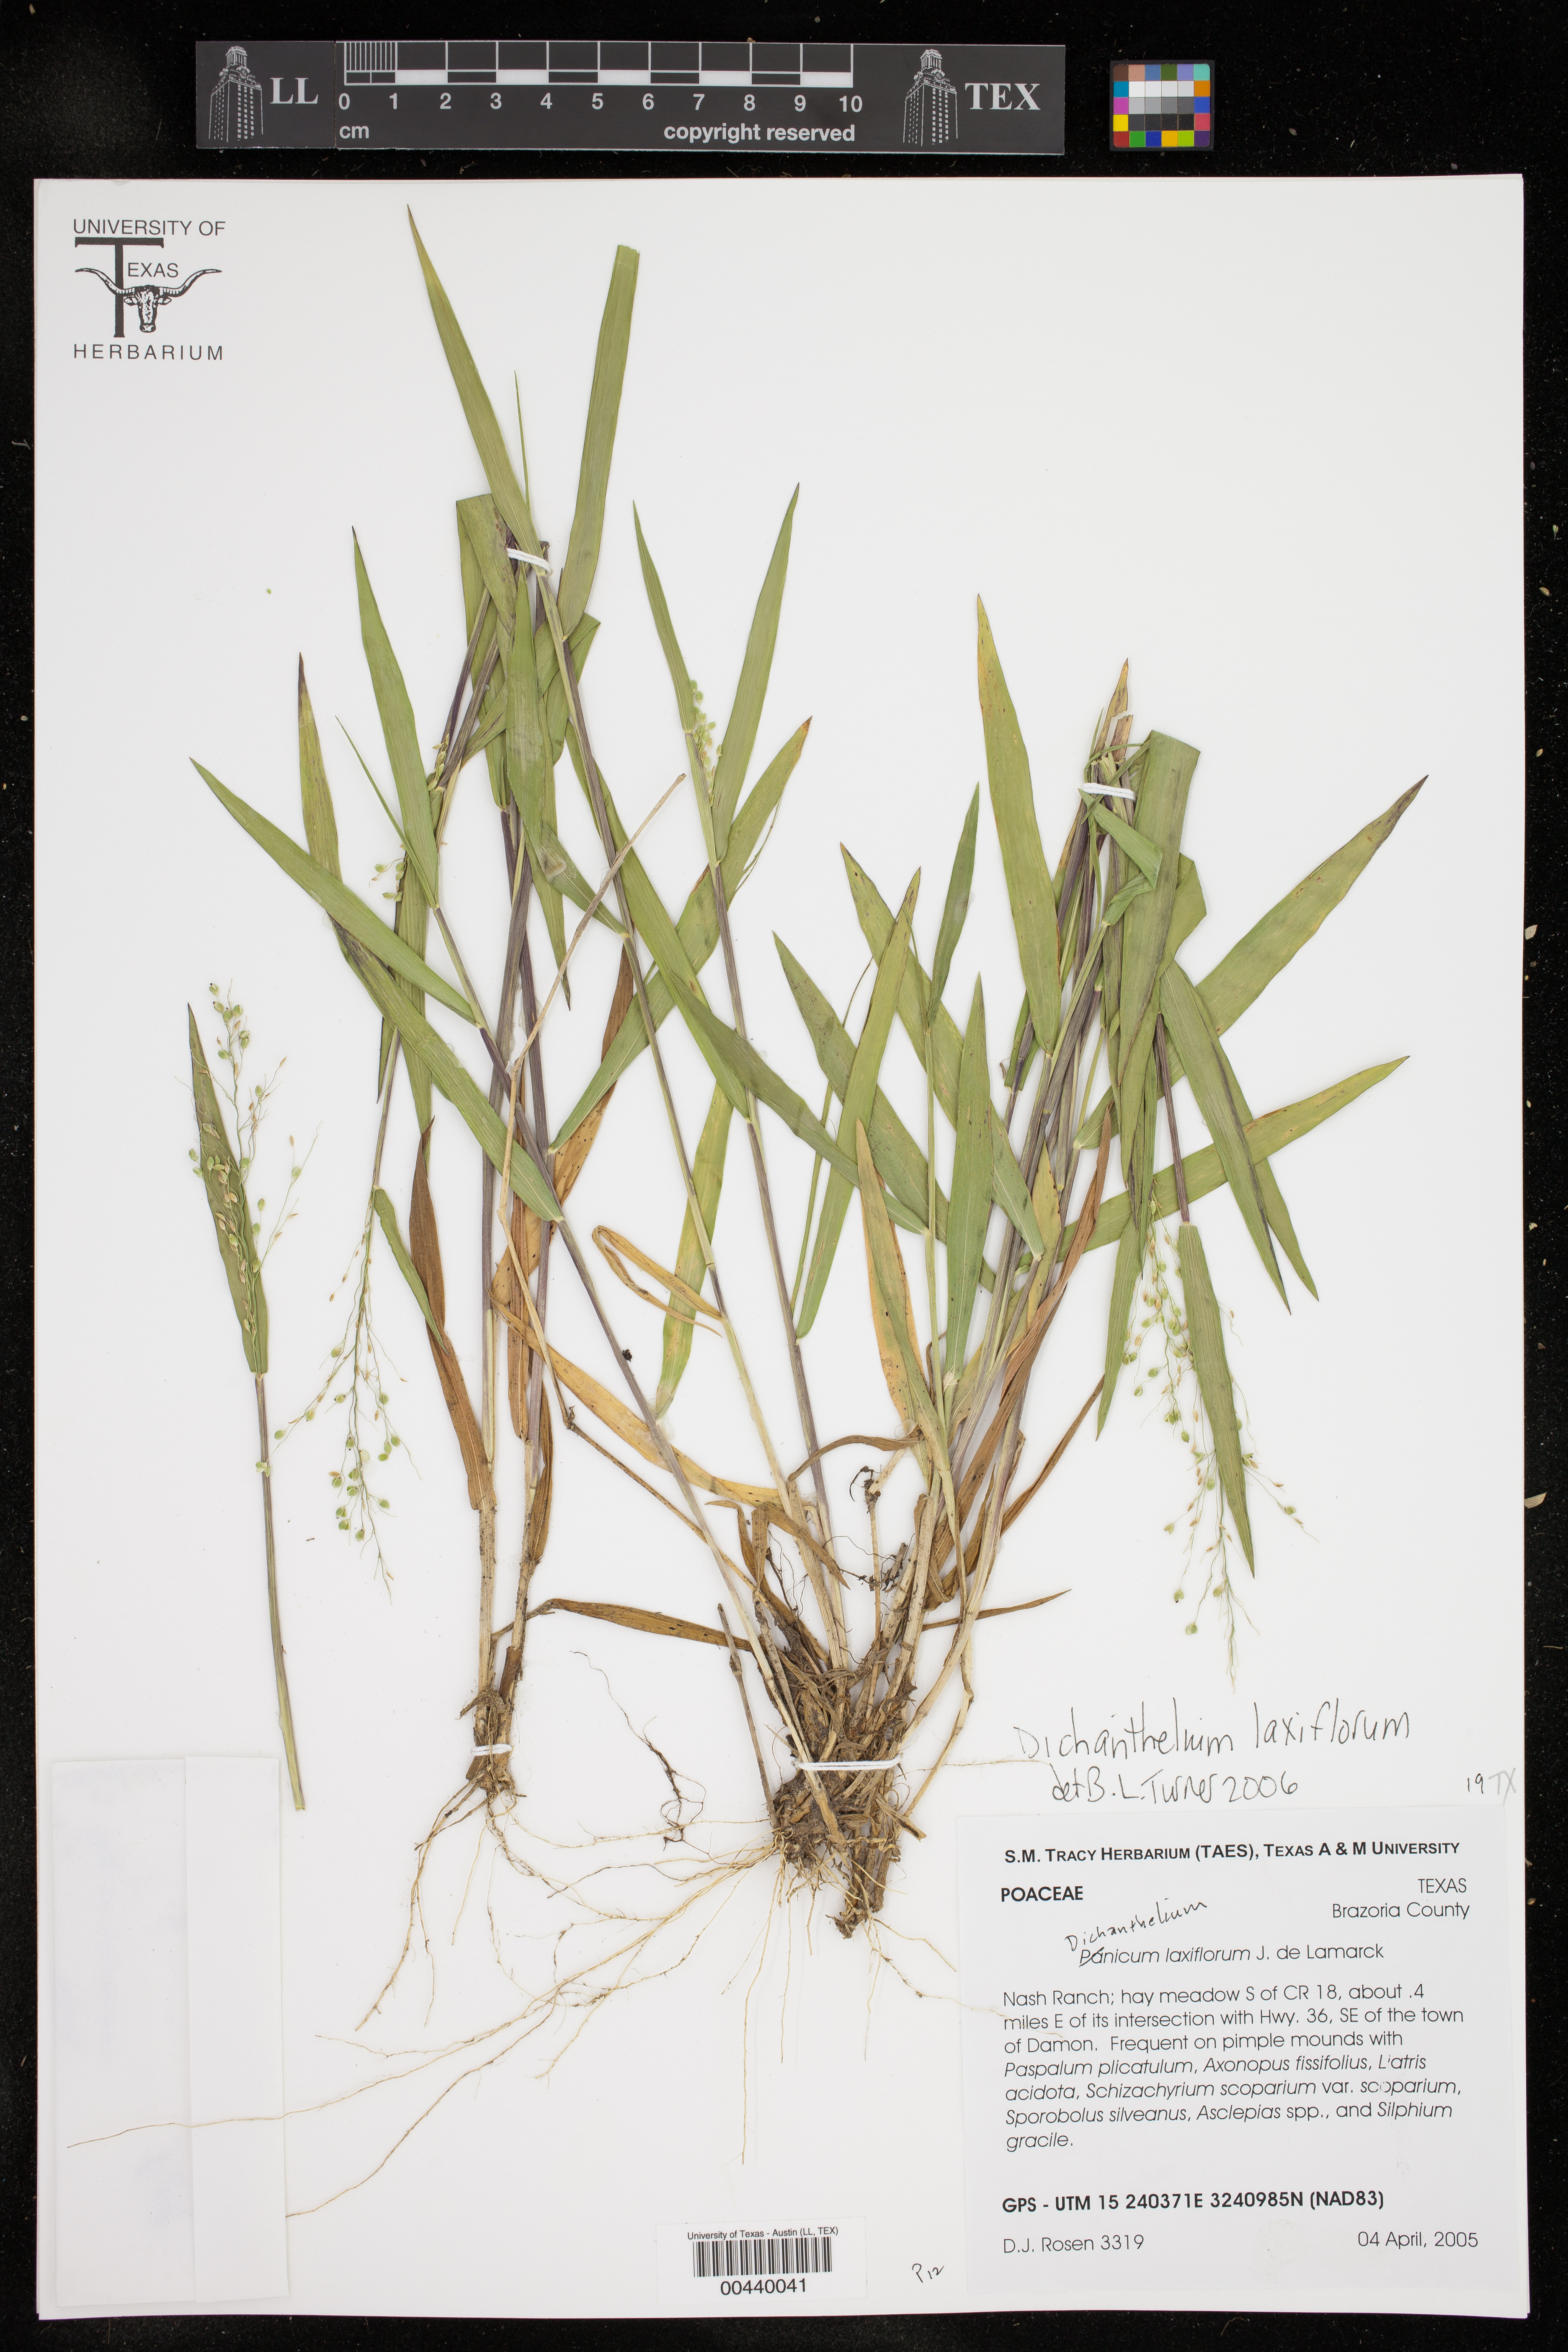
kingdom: Plantae
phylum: Tracheophyta
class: Liliopsida
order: Poales
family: Poaceae
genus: Dichanthelium
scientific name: Dichanthelium laxiflorum
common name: Soft-tuft panic grass
